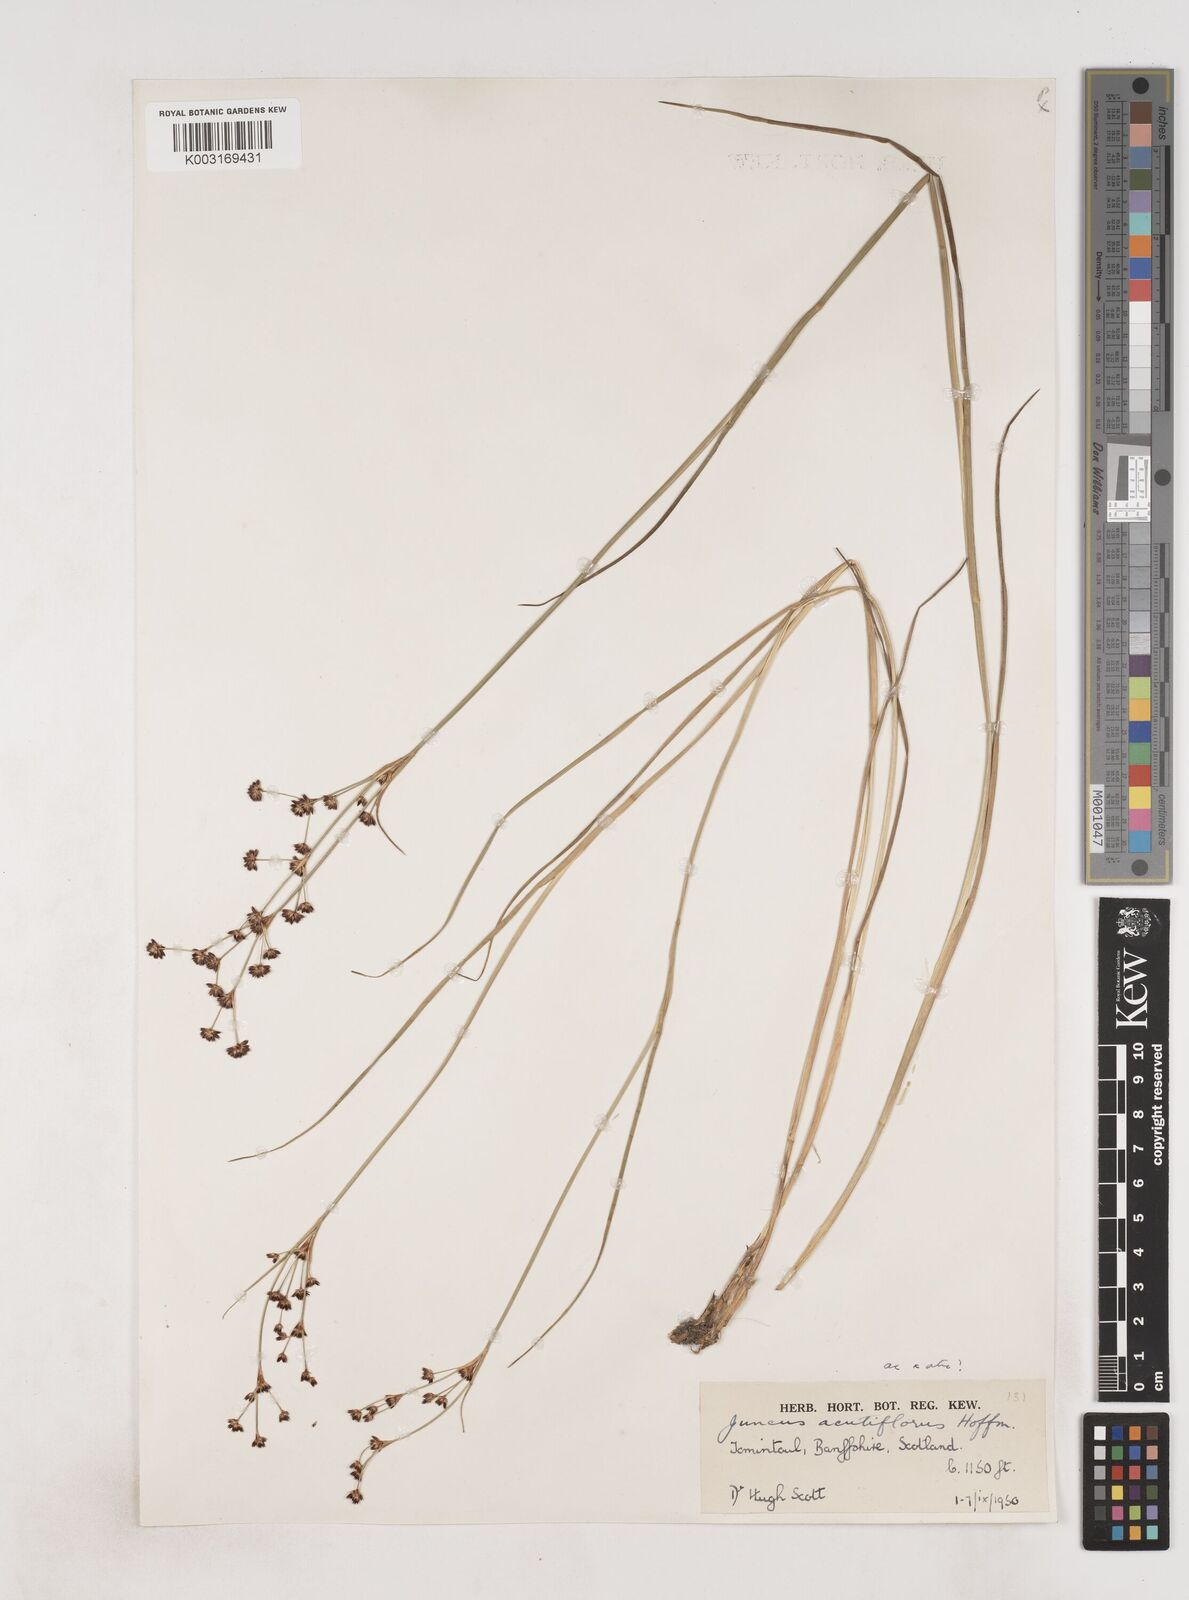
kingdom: Plantae
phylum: Tracheophyta
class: Liliopsida
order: Poales
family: Juncaceae
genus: Juncus
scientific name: Juncus acutiflorus
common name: Sharp-flowered rush
